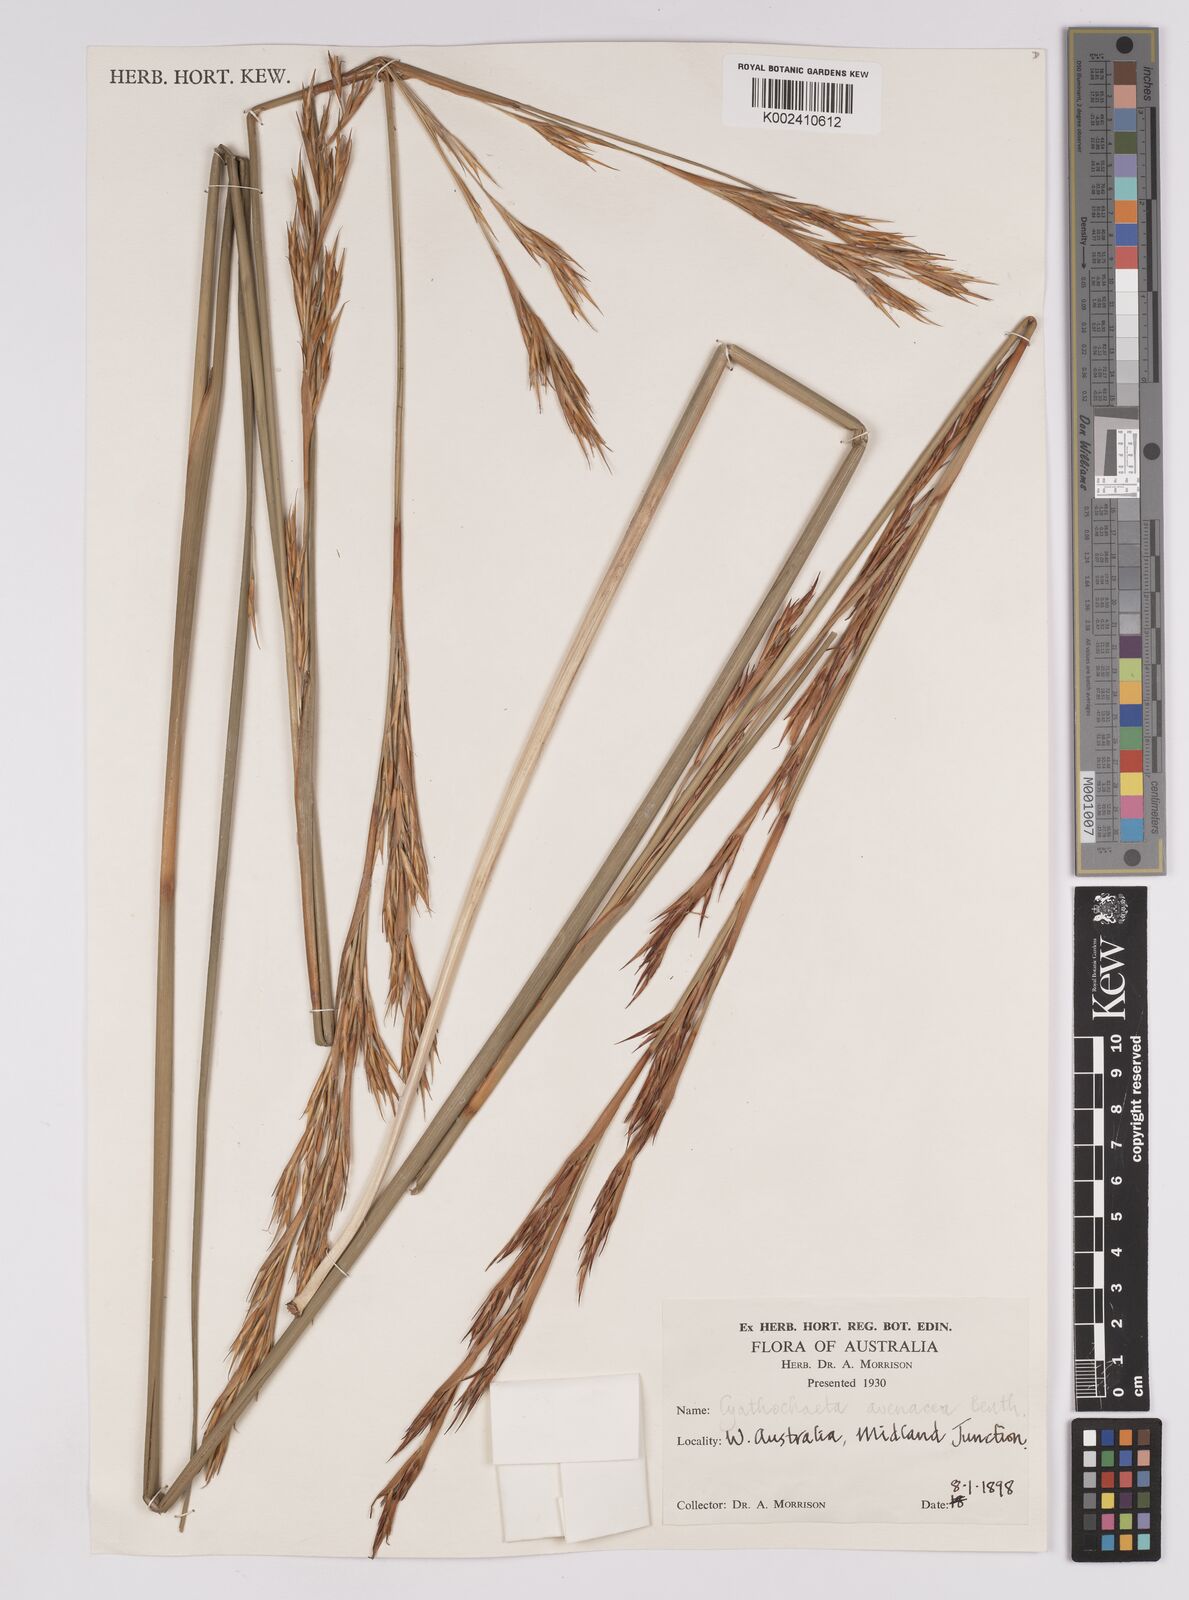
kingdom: Plantae
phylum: Tracheophyta
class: Liliopsida
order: Poales
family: Cyperaceae
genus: Cyathochaeta
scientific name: Cyathochaeta avenacea
